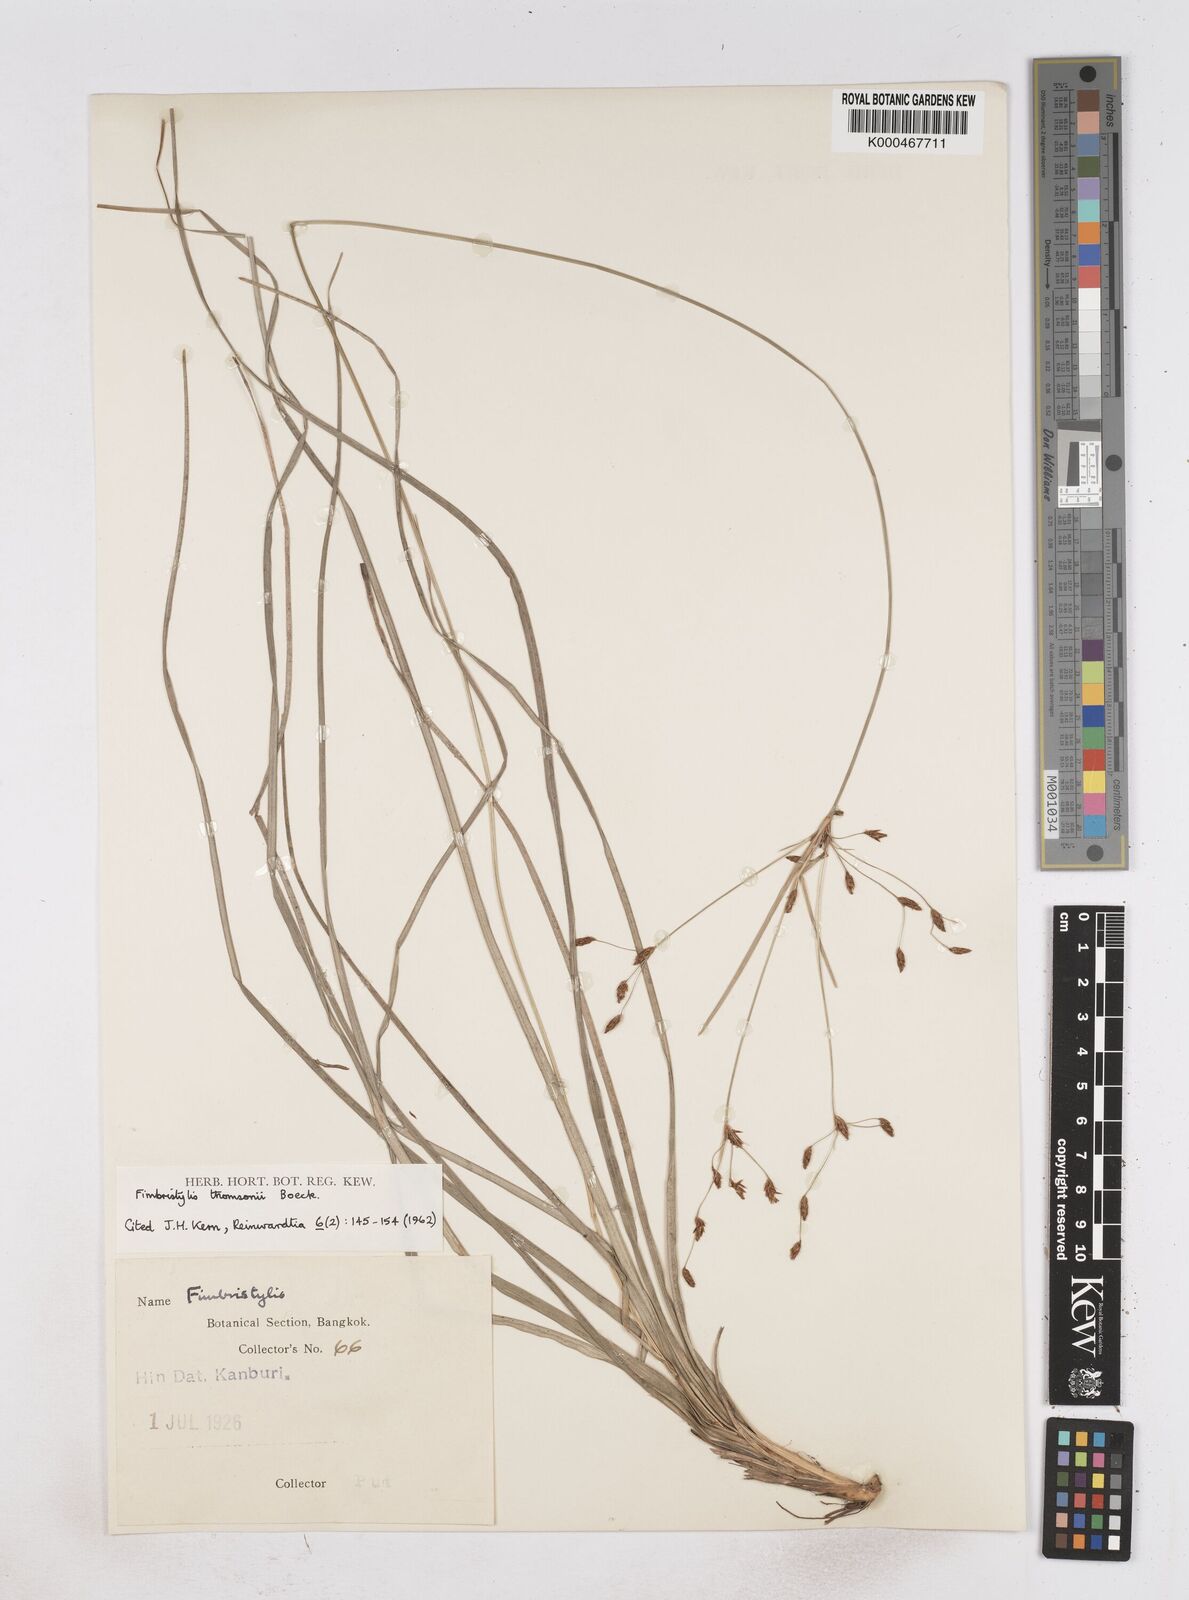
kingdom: Plantae
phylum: Tracheophyta
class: Liliopsida
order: Poales
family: Cyperaceae
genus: Fimbristylis
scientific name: Fimbristylis thomsonii
